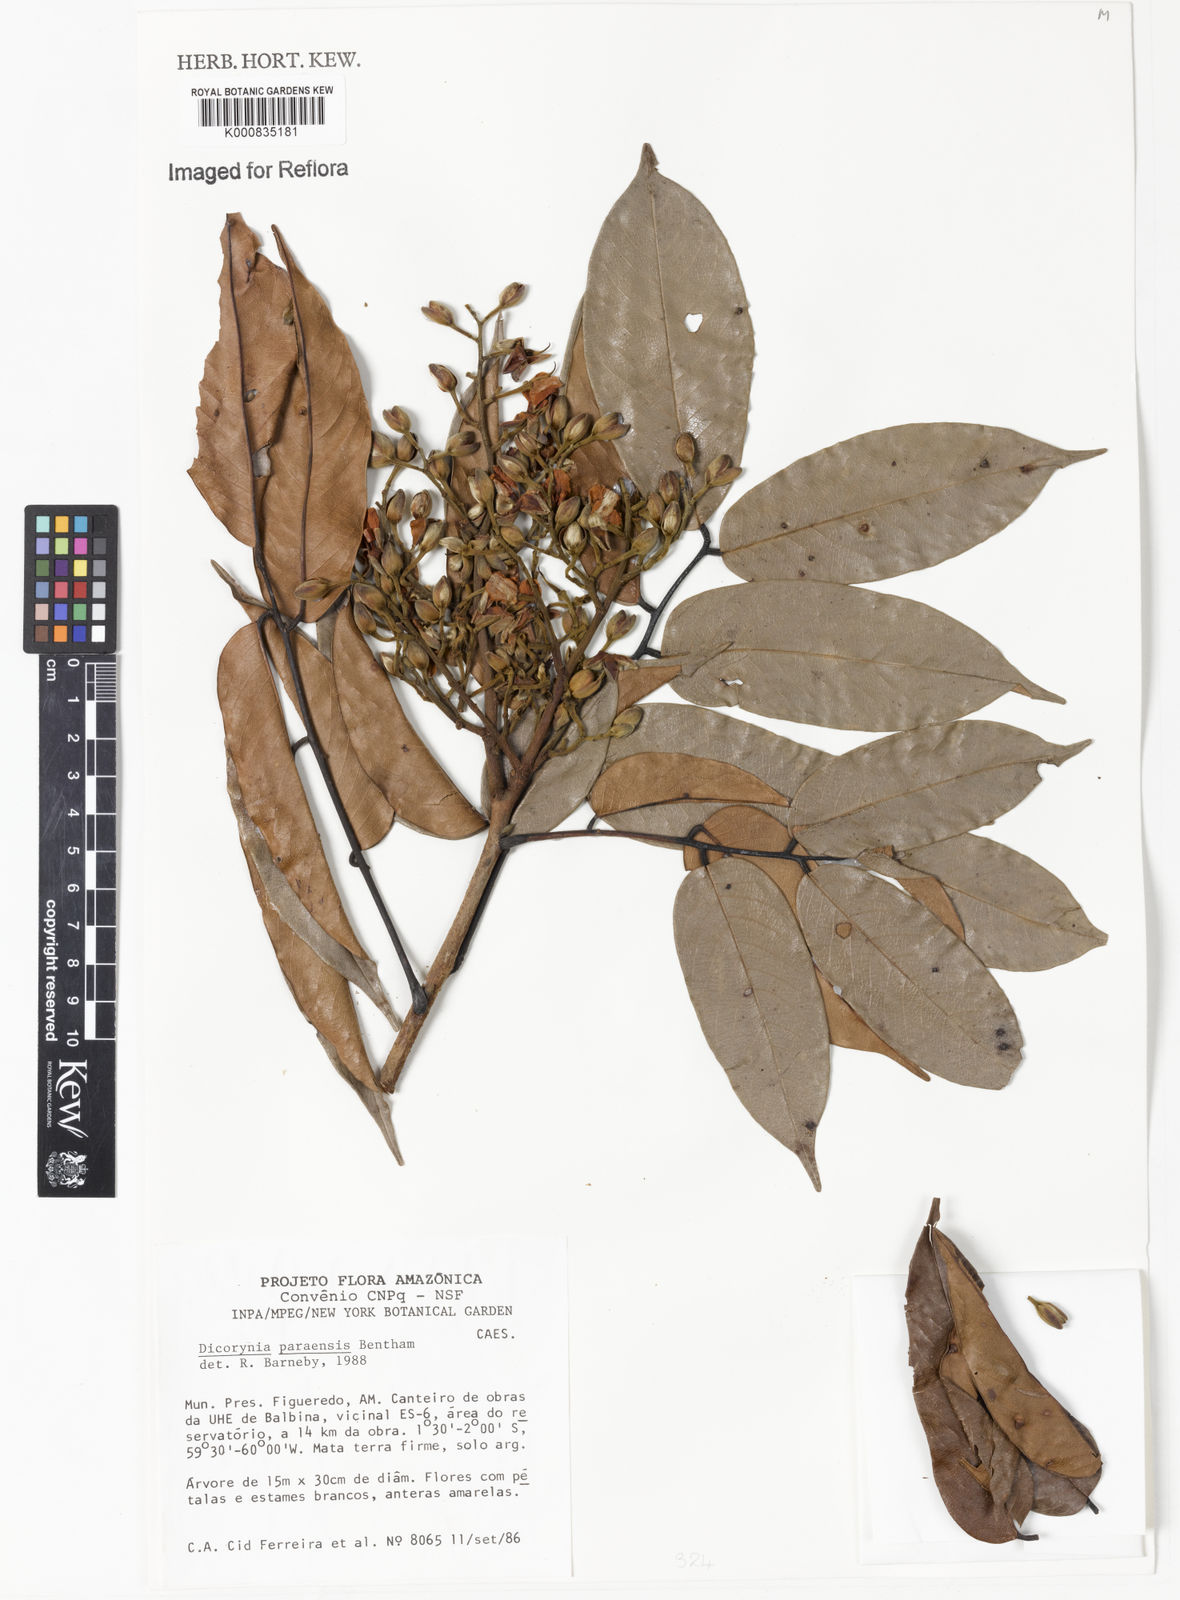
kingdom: Plantae
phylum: Tracheophyta
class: Magnoliopsida
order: Fabales
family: Fabaceae
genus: Dicorynia
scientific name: Dicorynia paraensis
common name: Angelique
